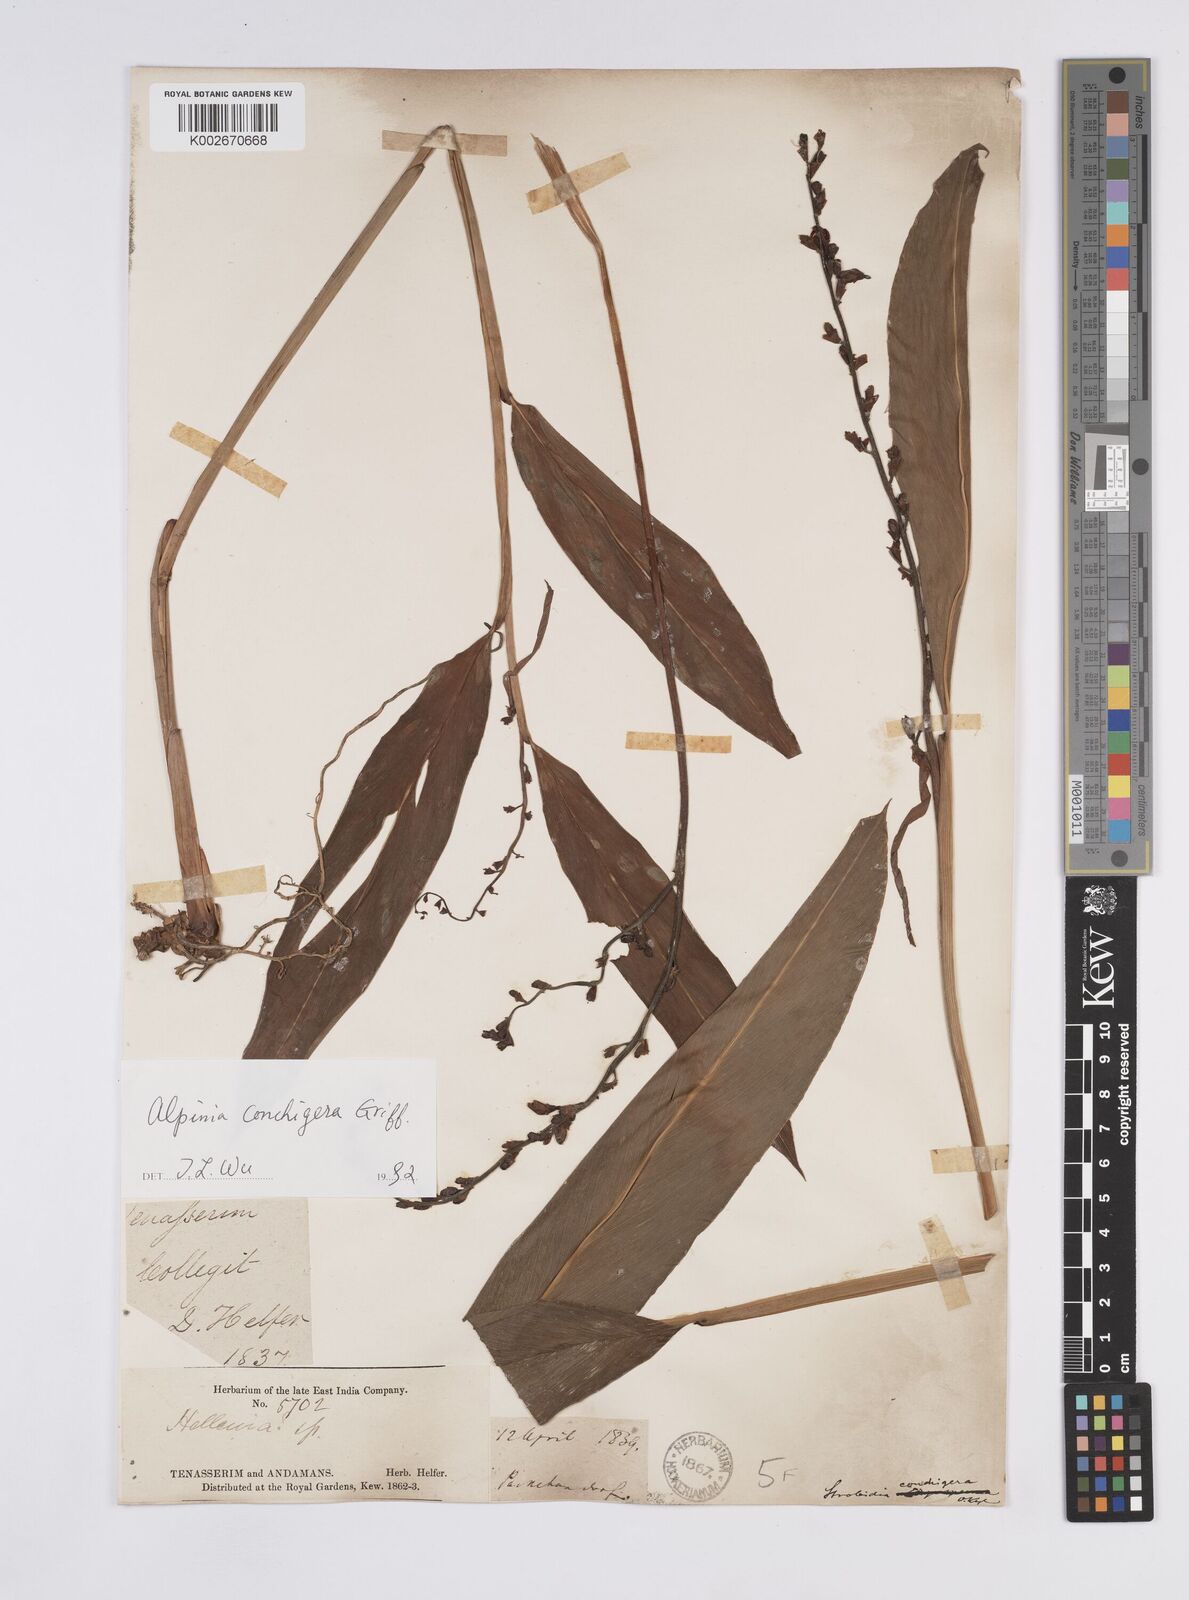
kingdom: Plantae
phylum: Tracheophyta
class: Liliopsida
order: Zingiberales
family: Zingiberaceae
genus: Alpinia
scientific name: Alpinia conchigera
